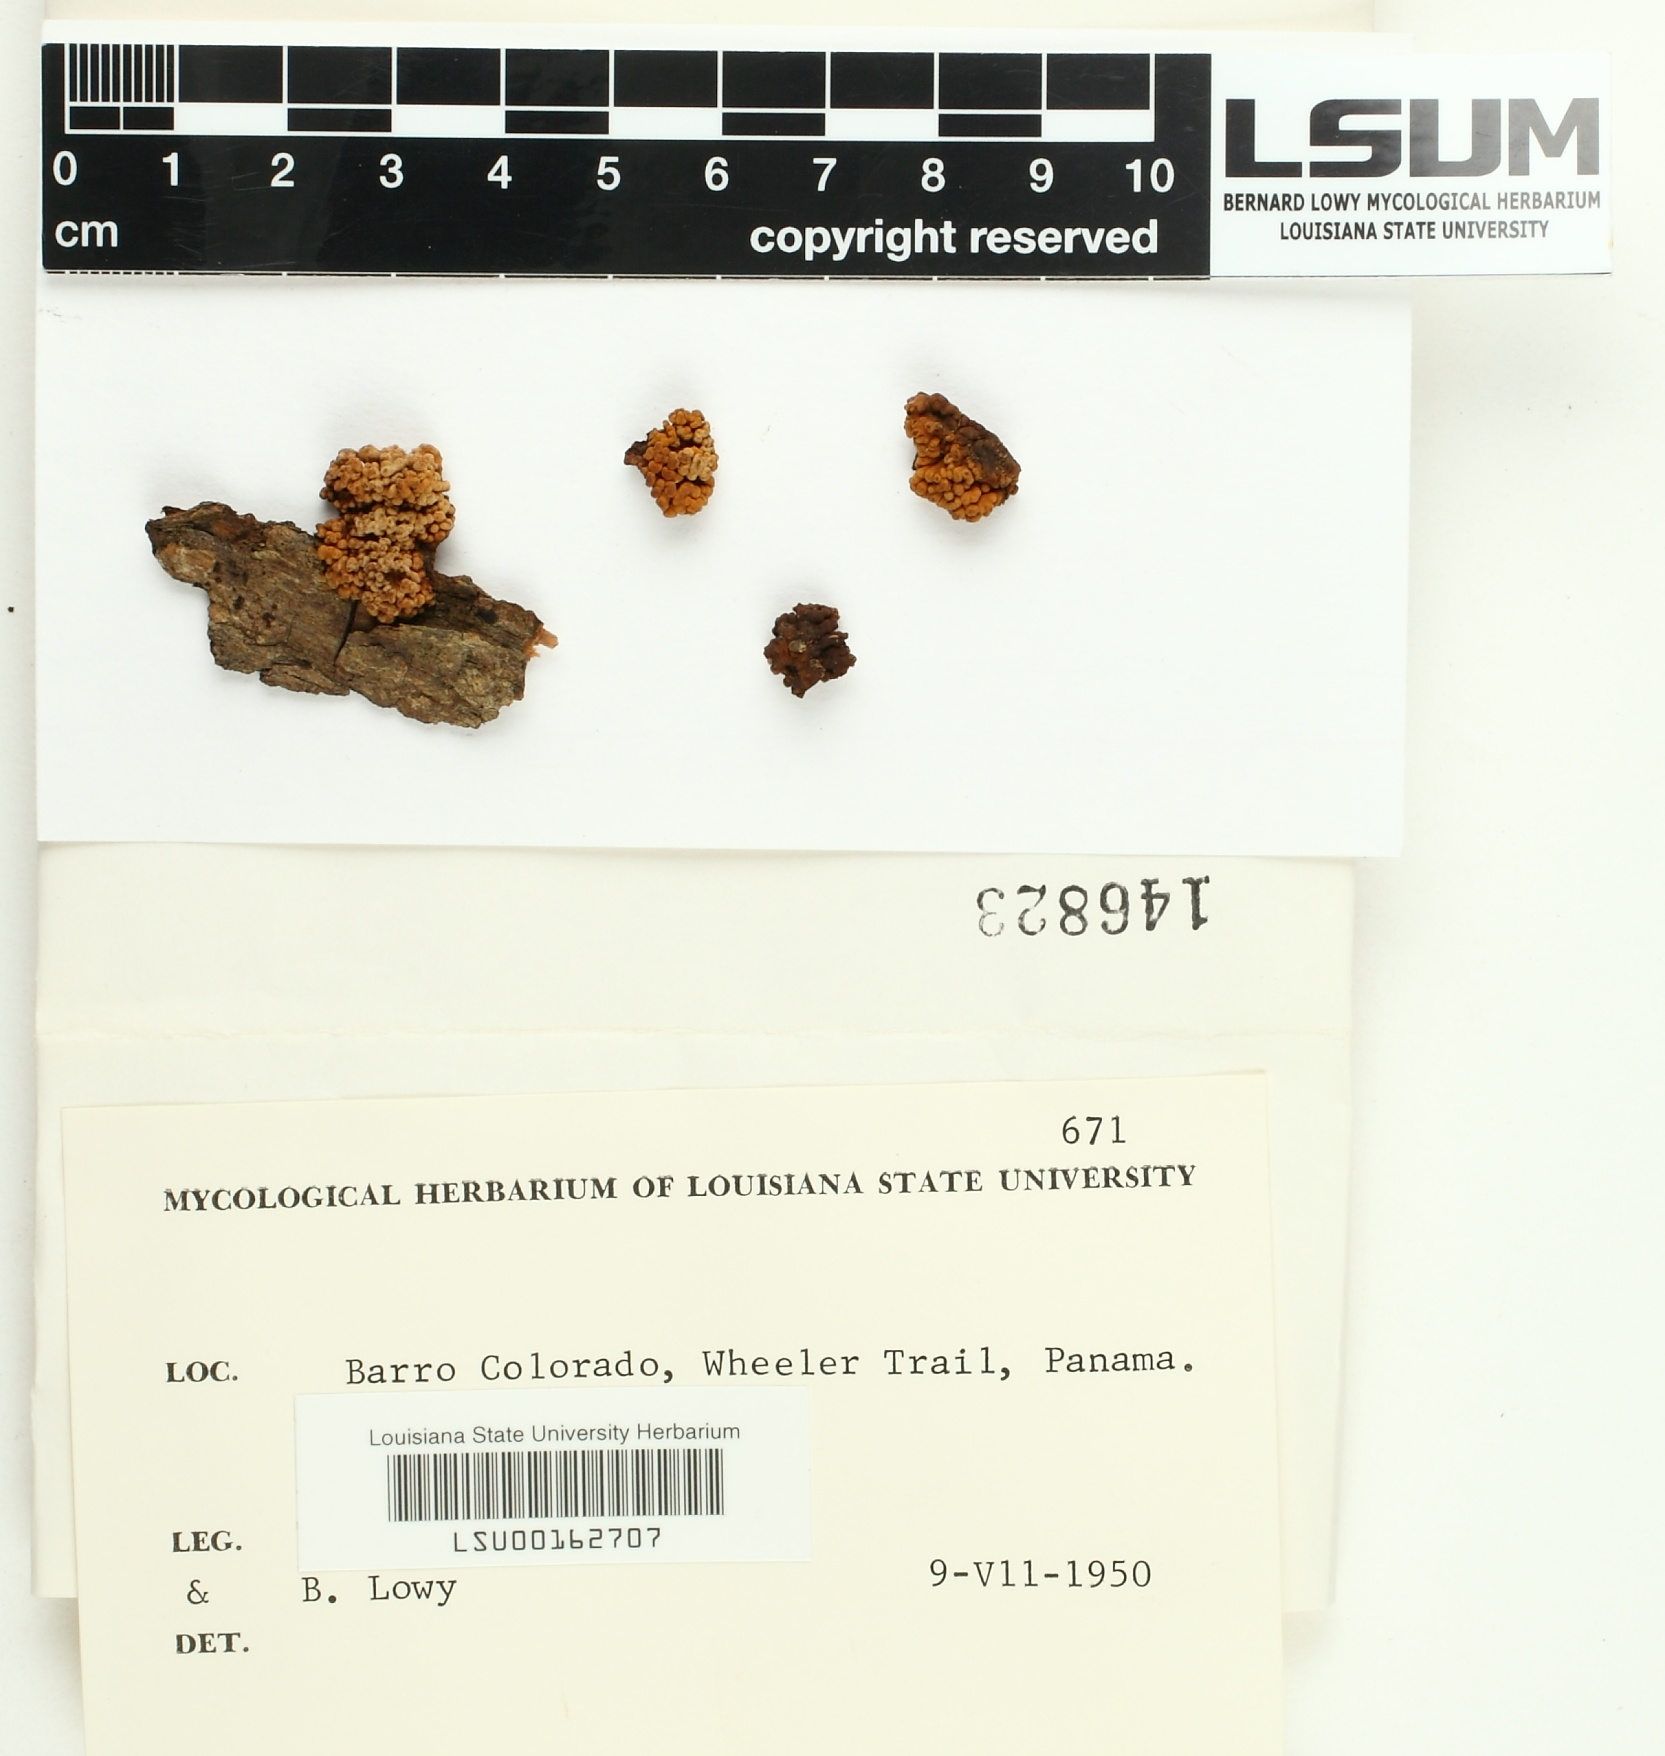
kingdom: Fungi
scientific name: Fungi
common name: Fungi
